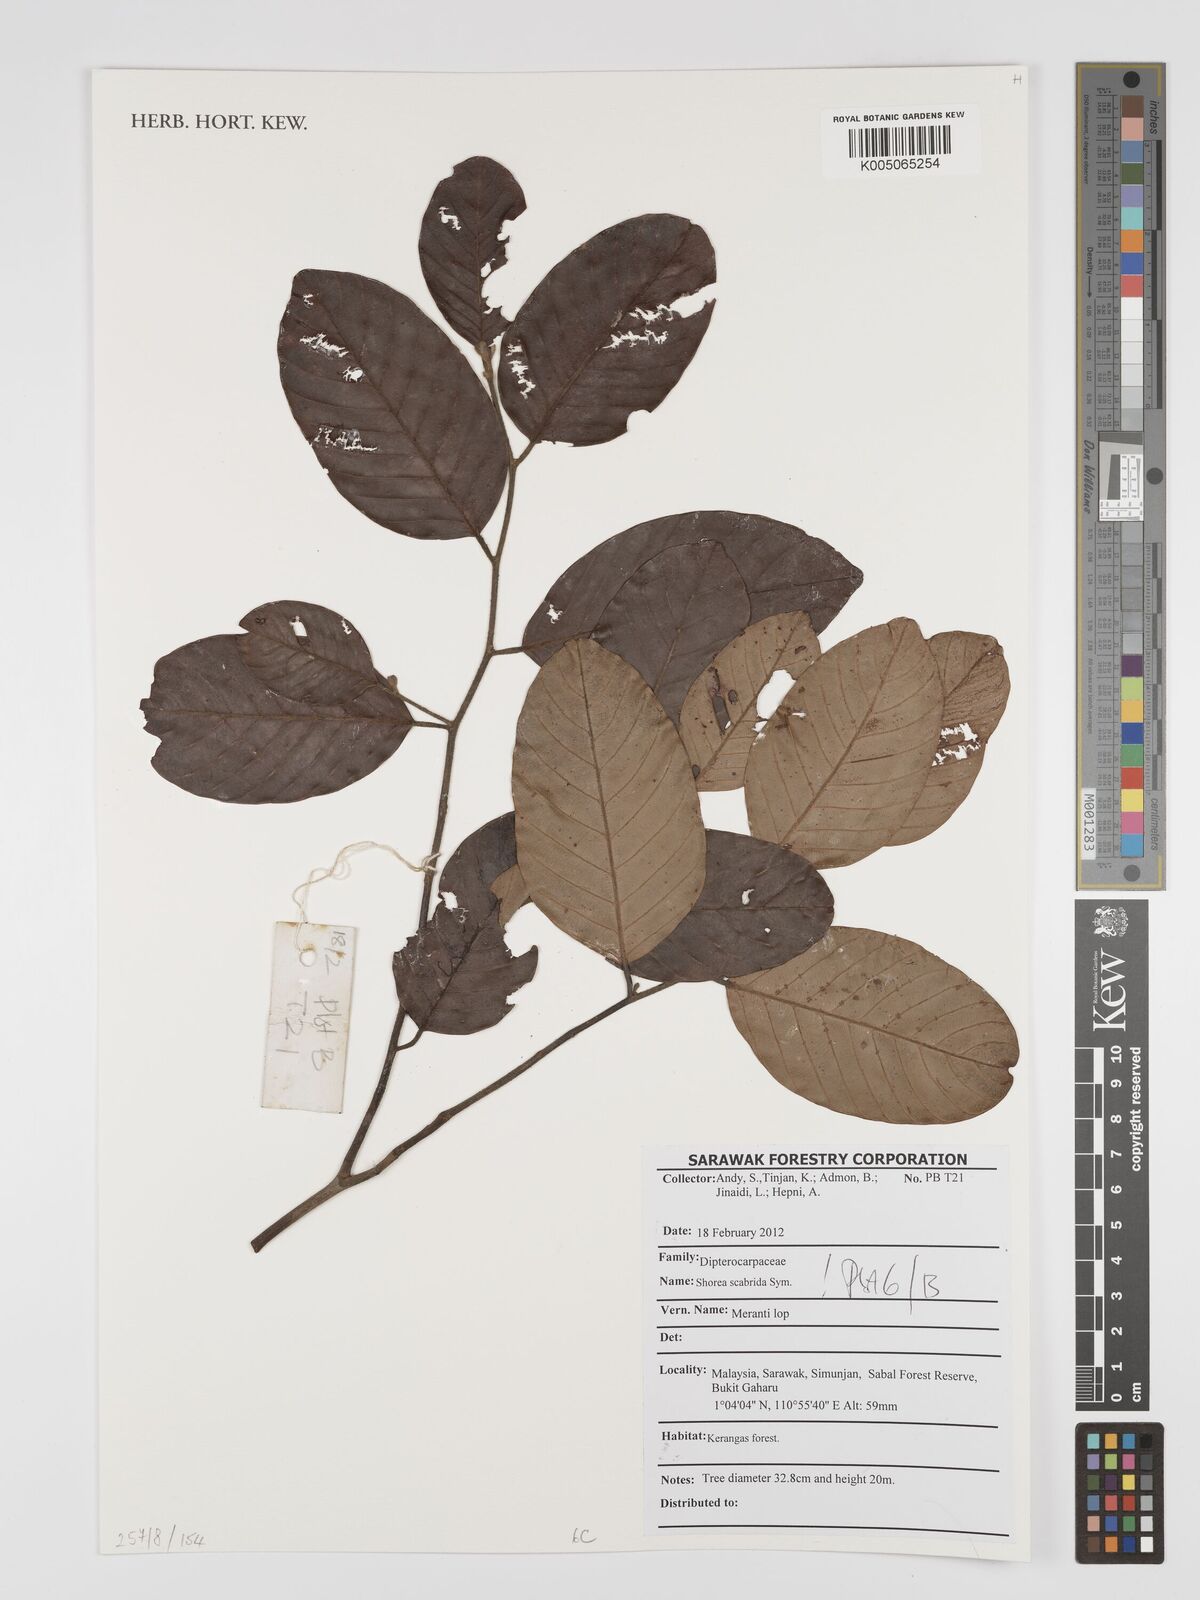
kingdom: Plantae
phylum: Tracheophyta
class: Magnoliopsida
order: Malvales
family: Dipterocarpaceae
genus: Shorea
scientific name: Shorea scabrida
